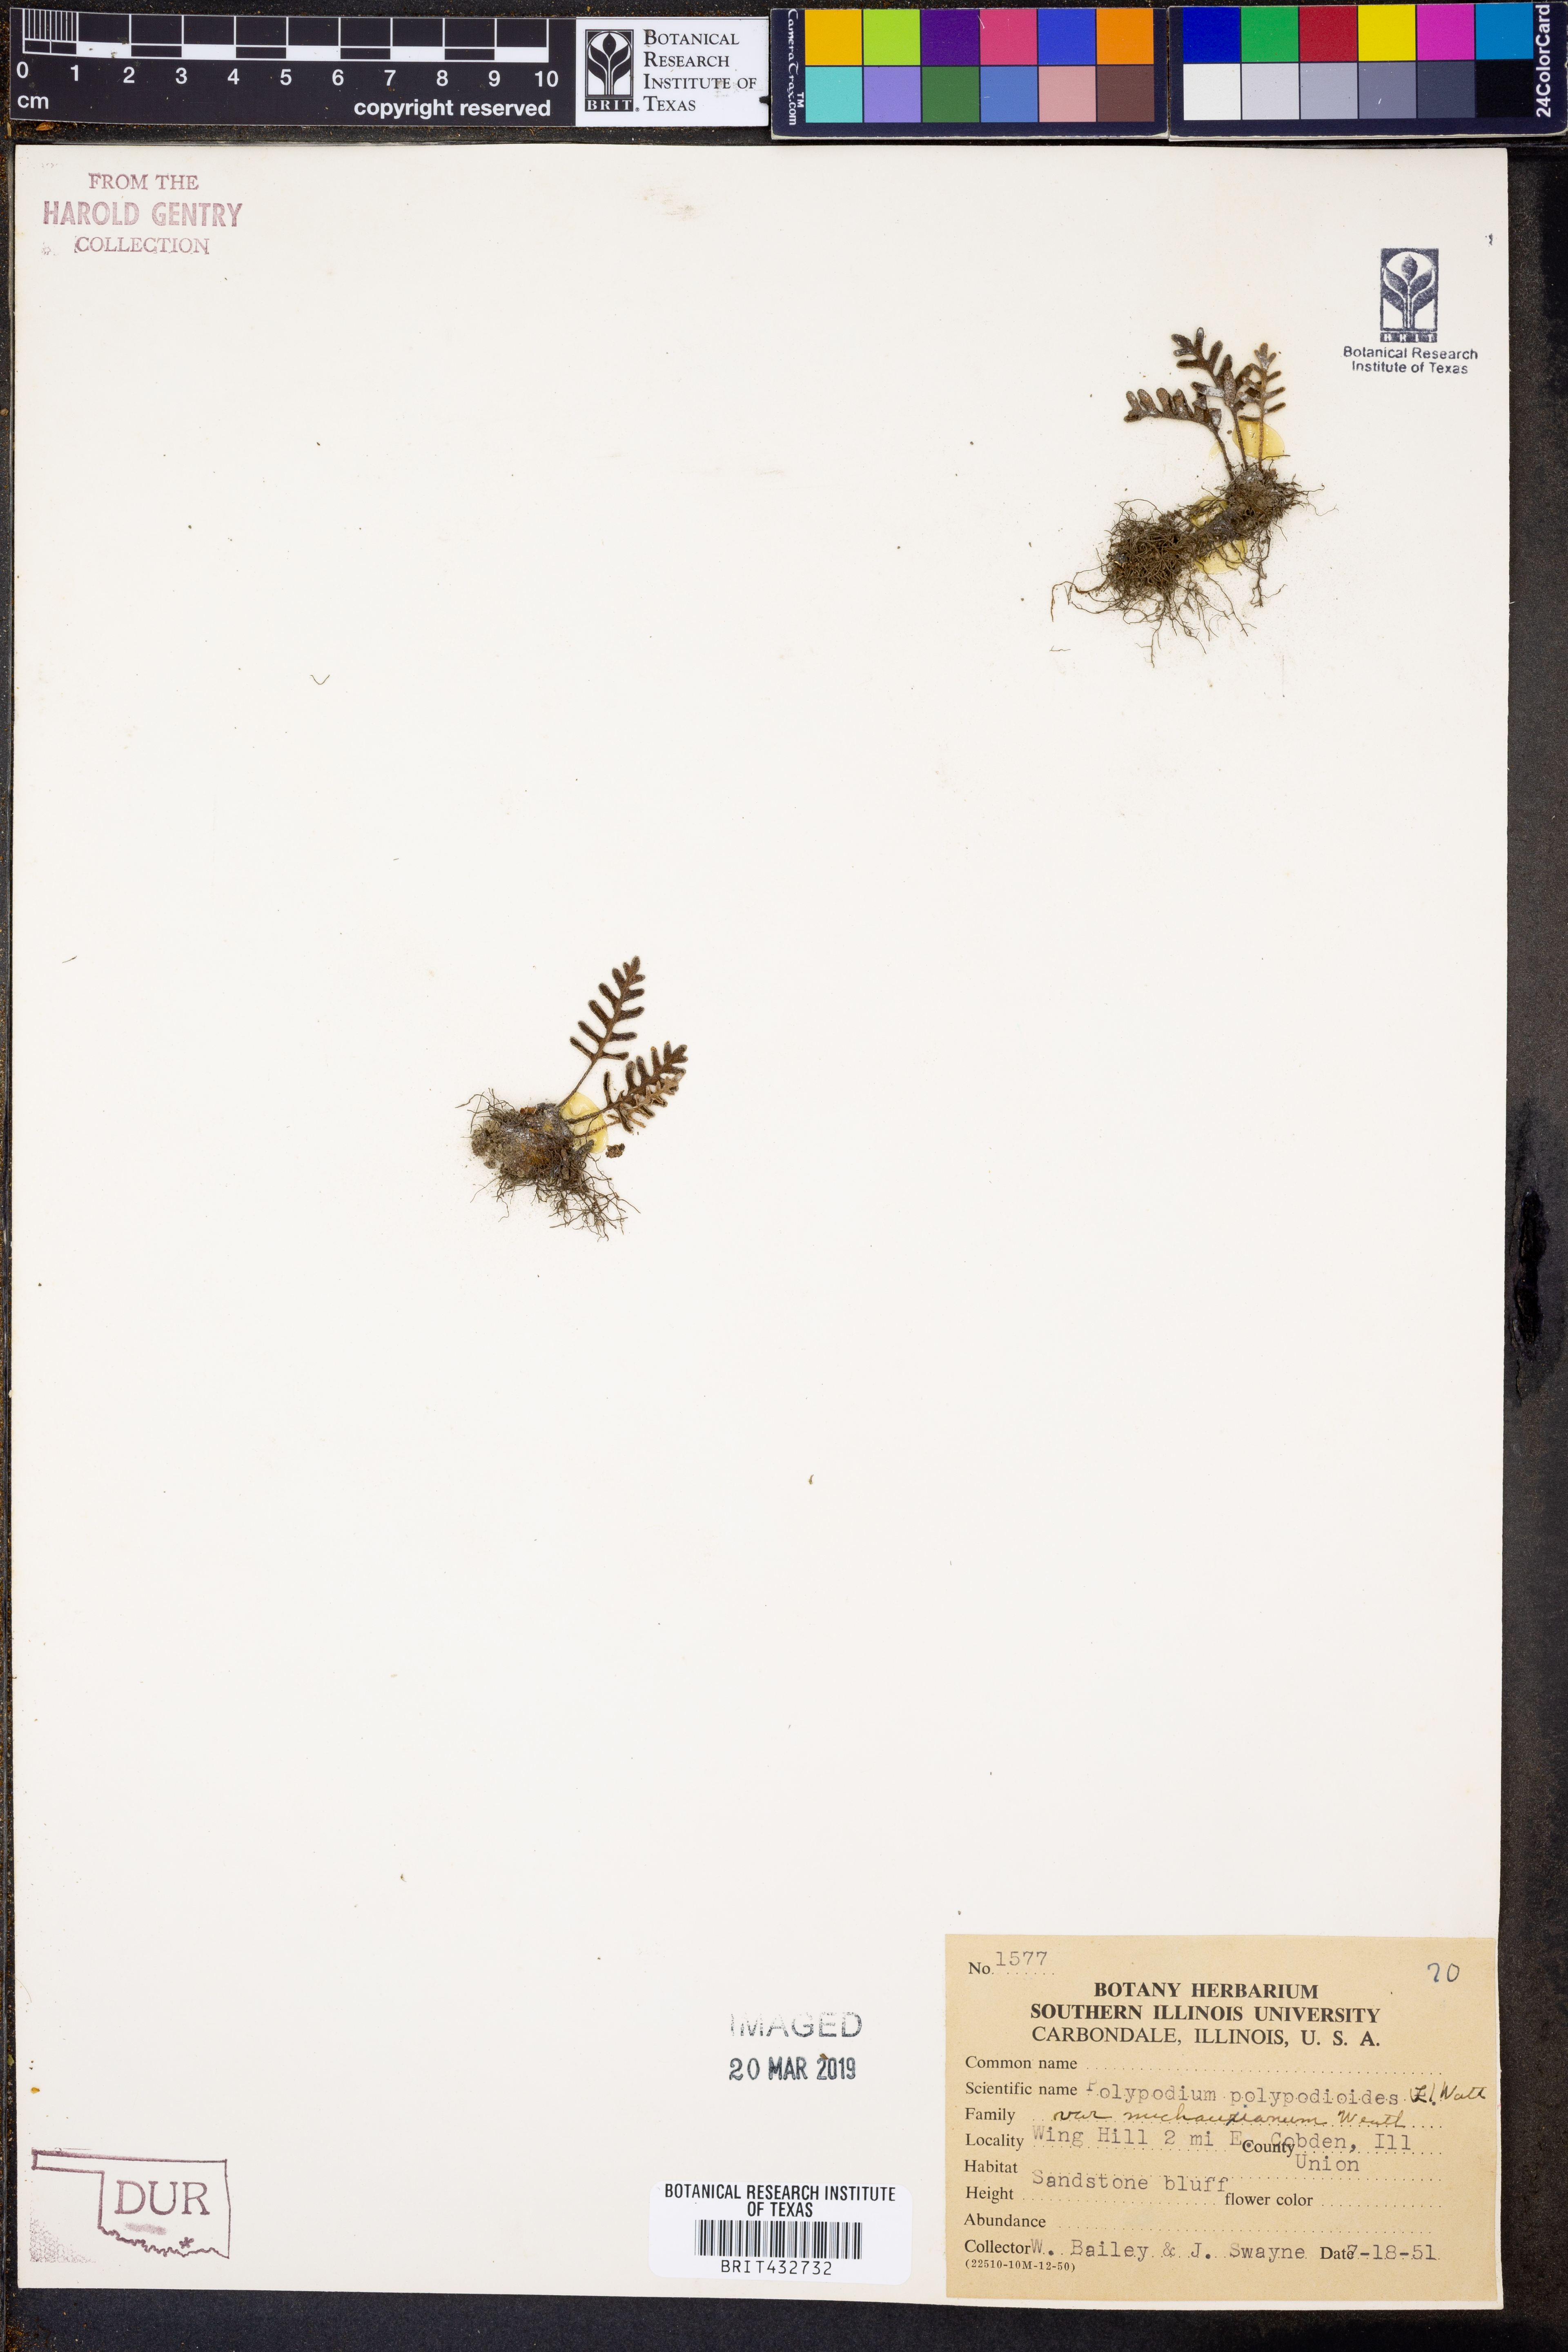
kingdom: Plantae
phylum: Tracheophyta
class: Polypodiopsida
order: Polypodiales
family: Polypodiaceae
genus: Pleopeltis
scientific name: Pleopeltis michauxiana
